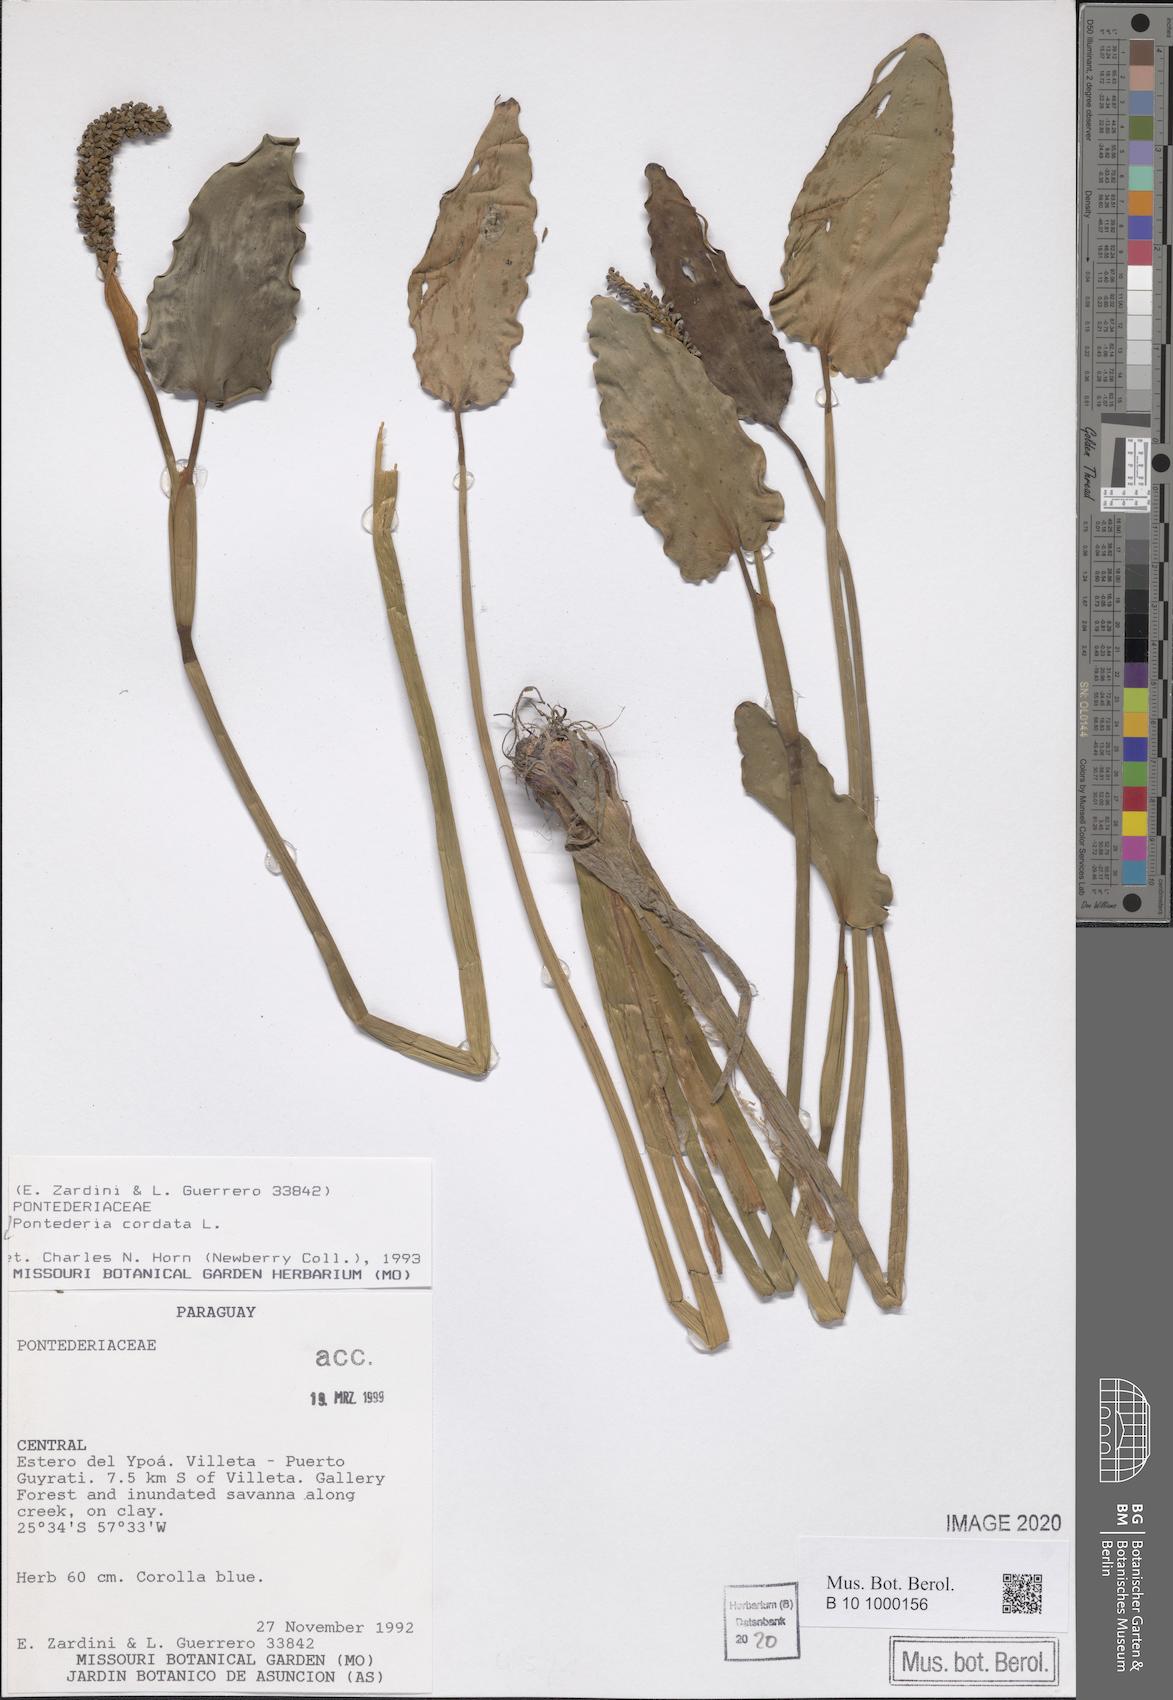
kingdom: Plantae
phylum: Tracheophyta
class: Liliopsida
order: Commelinales
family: Pontederiaceae
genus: Pontederia
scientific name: Pontederia cordata
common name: Pickerelweed
